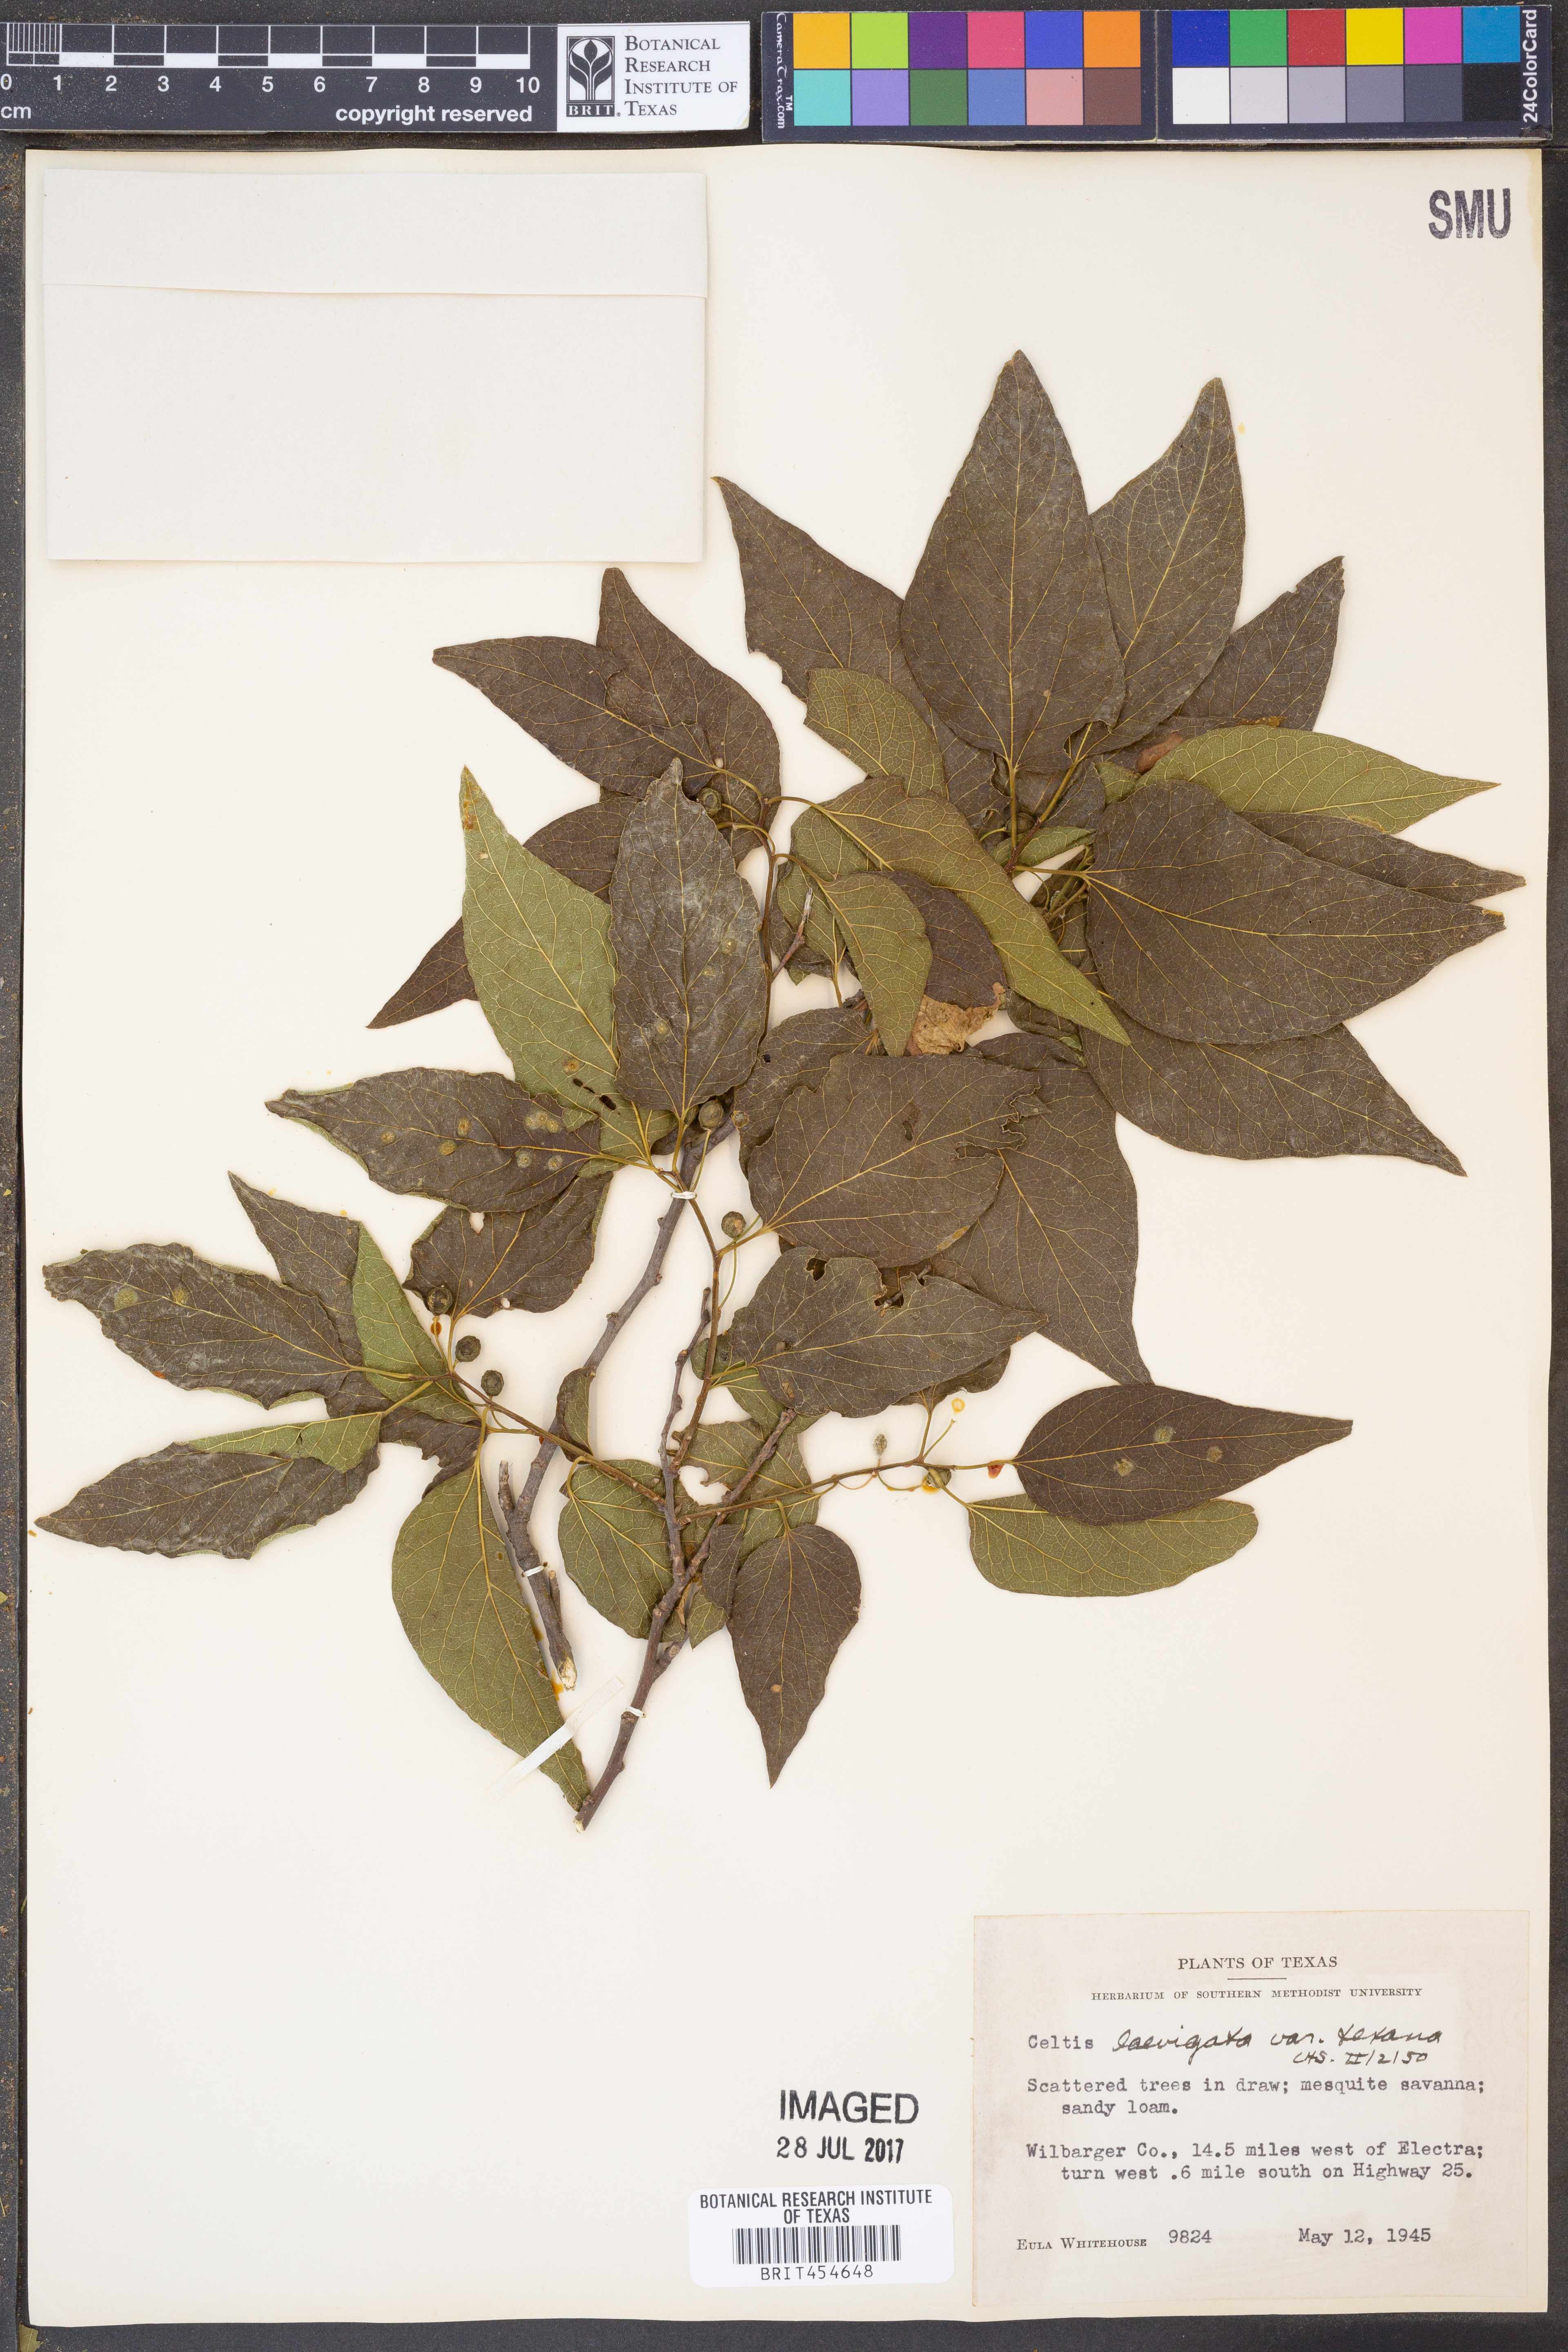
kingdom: Plantae
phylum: Tracheophyta
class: Magnoliopsida
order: Rosales
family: Cannabaceae
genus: Celtis
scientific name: Celtis laevigata
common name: Sugarberry
